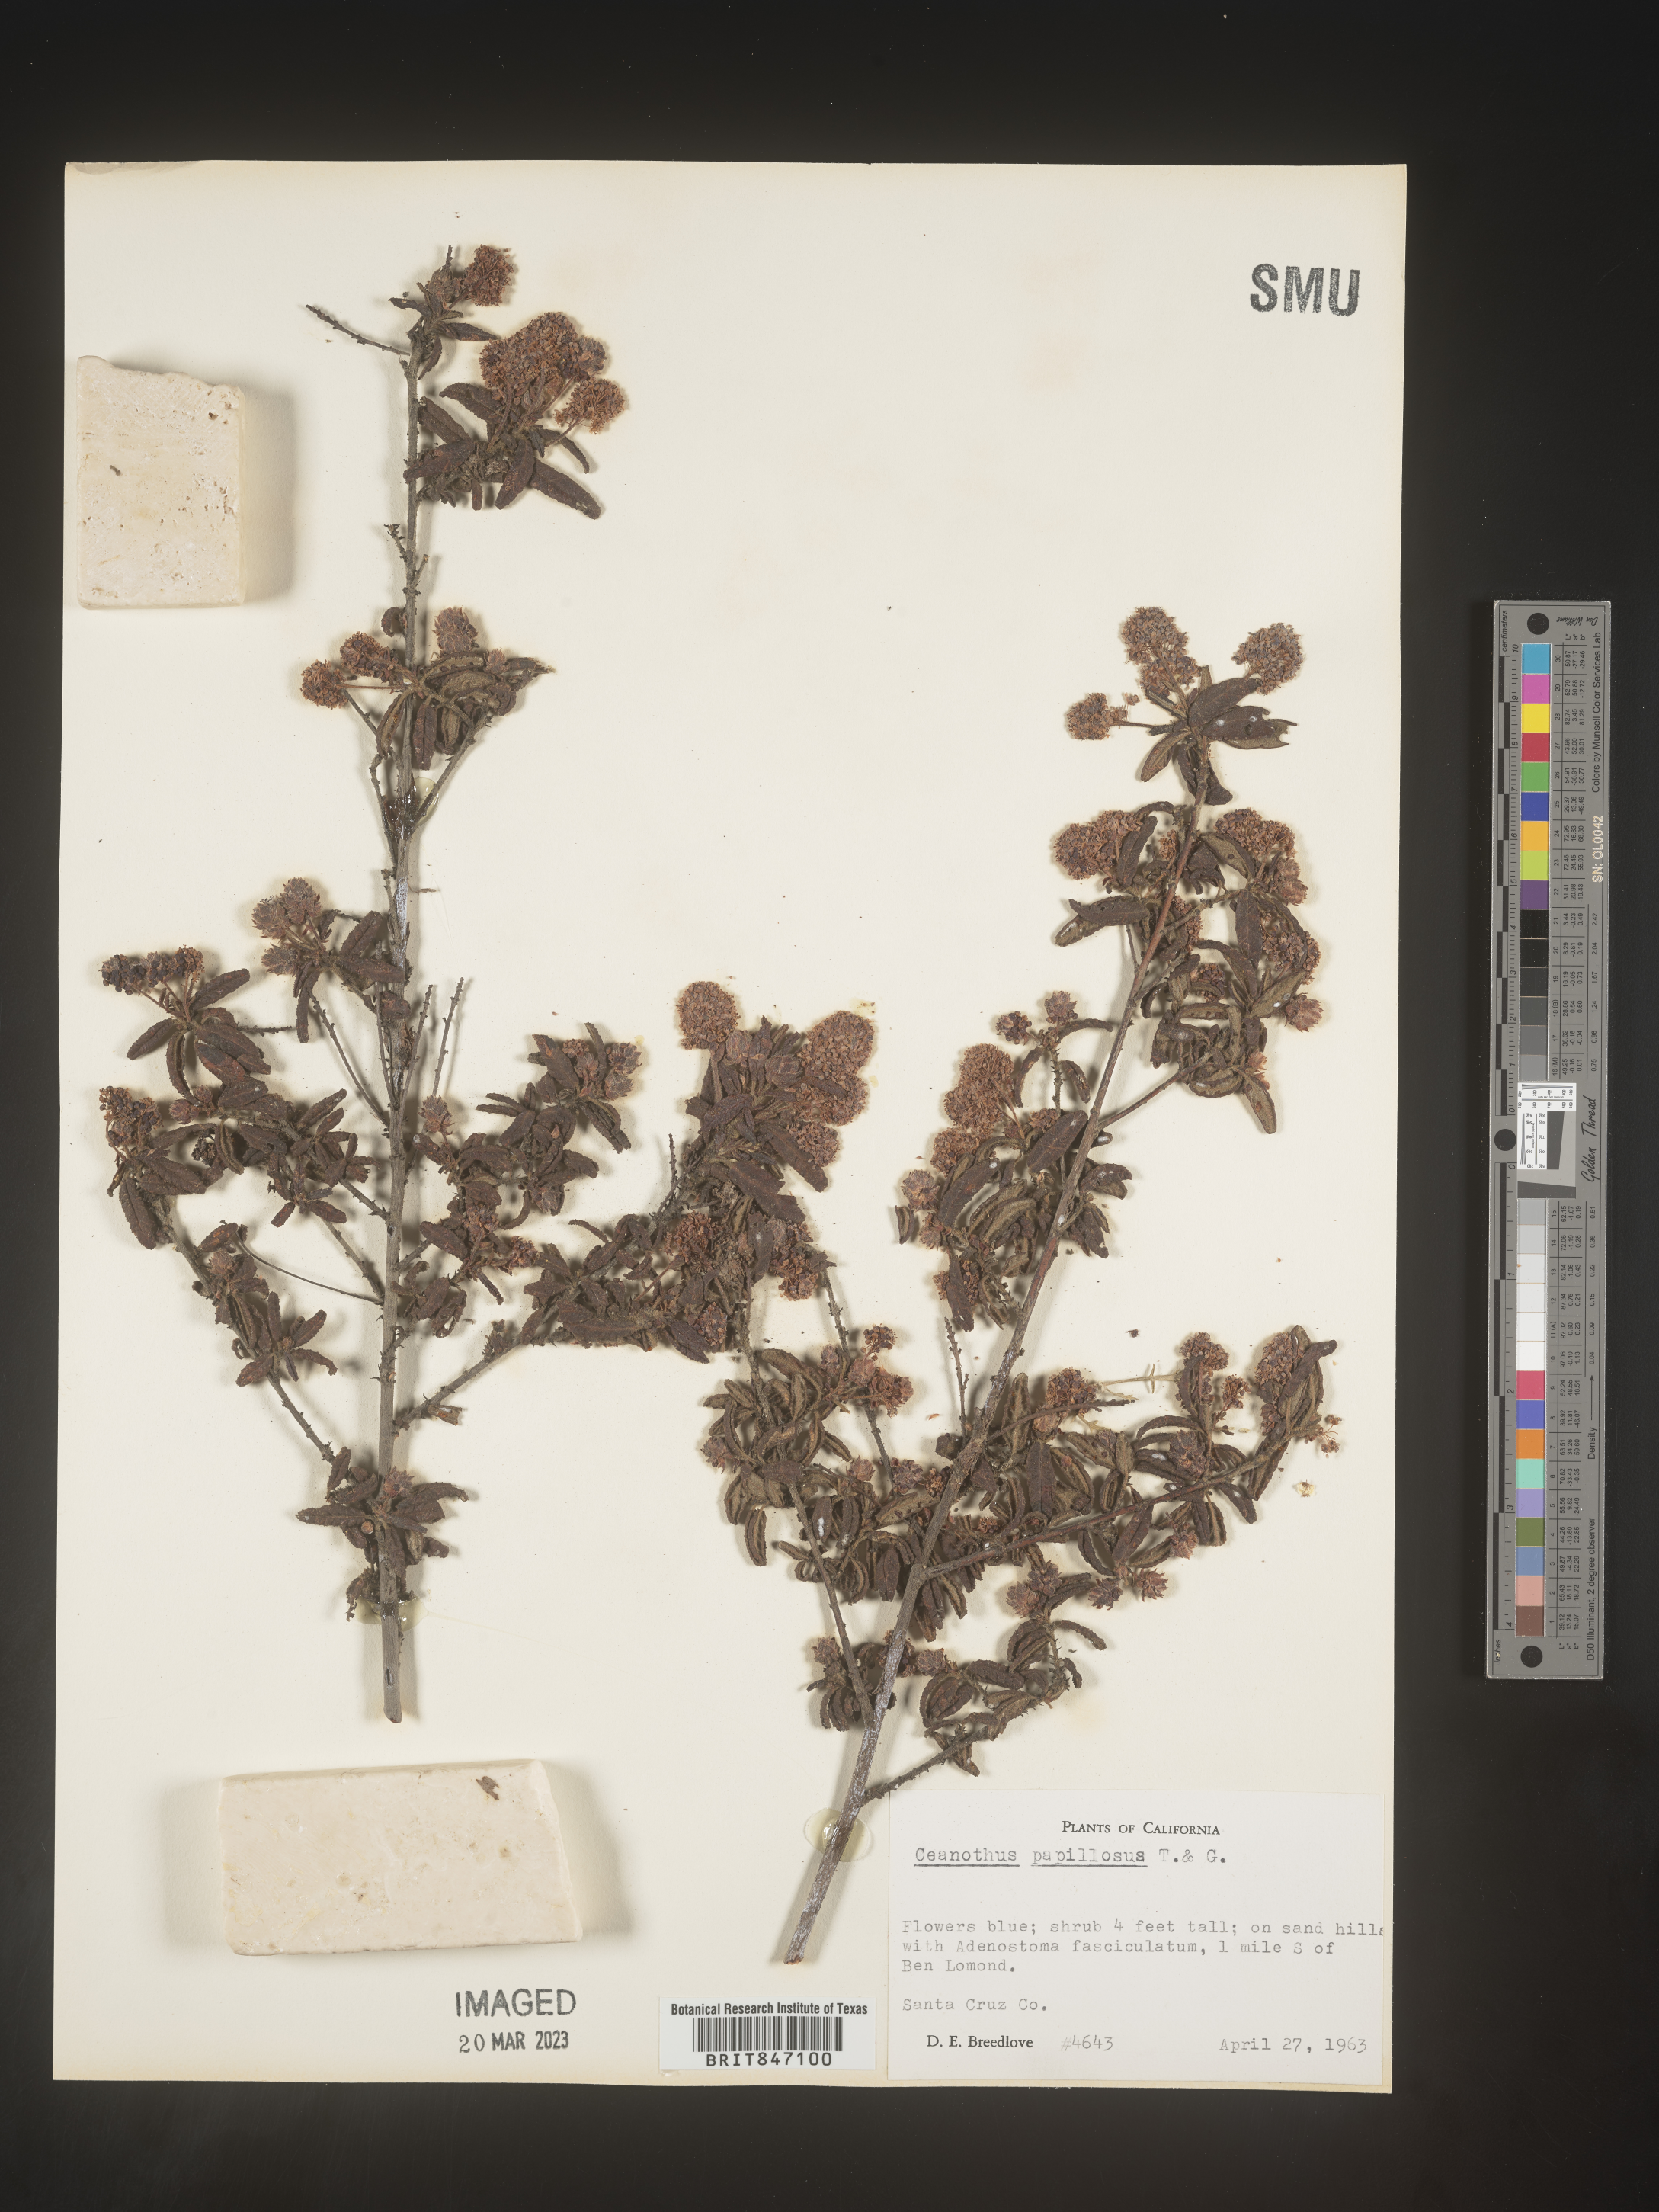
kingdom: Plantae
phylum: Tracheophyta
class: Magnoliopsida
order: Rosales
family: Rhamnaceae
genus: Ceanothus
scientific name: Ceanothus
